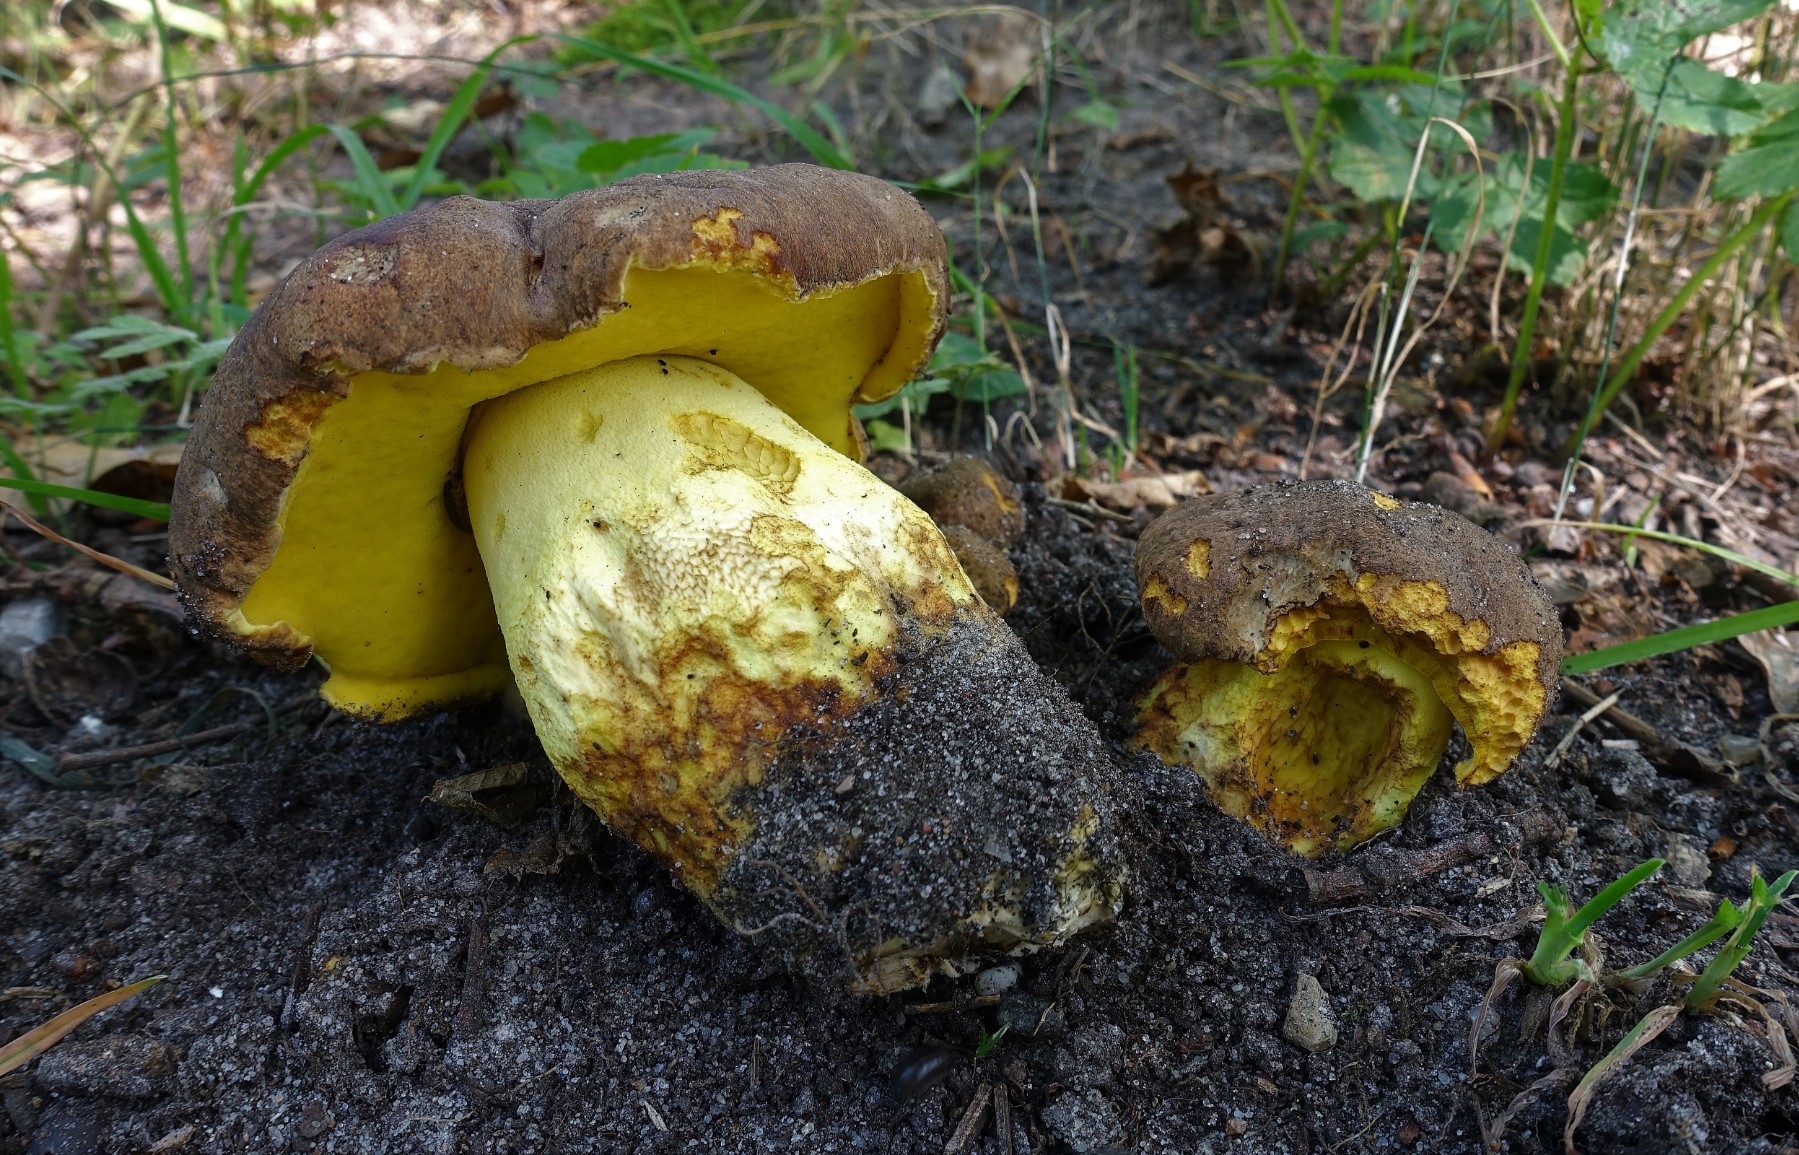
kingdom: Fungi
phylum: Basidiomycota
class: Agaricomycetes
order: Boletales
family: Boletaceae
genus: Butyriboletus
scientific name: Butyriboletus appendiculatus
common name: tenstokket rørhat
